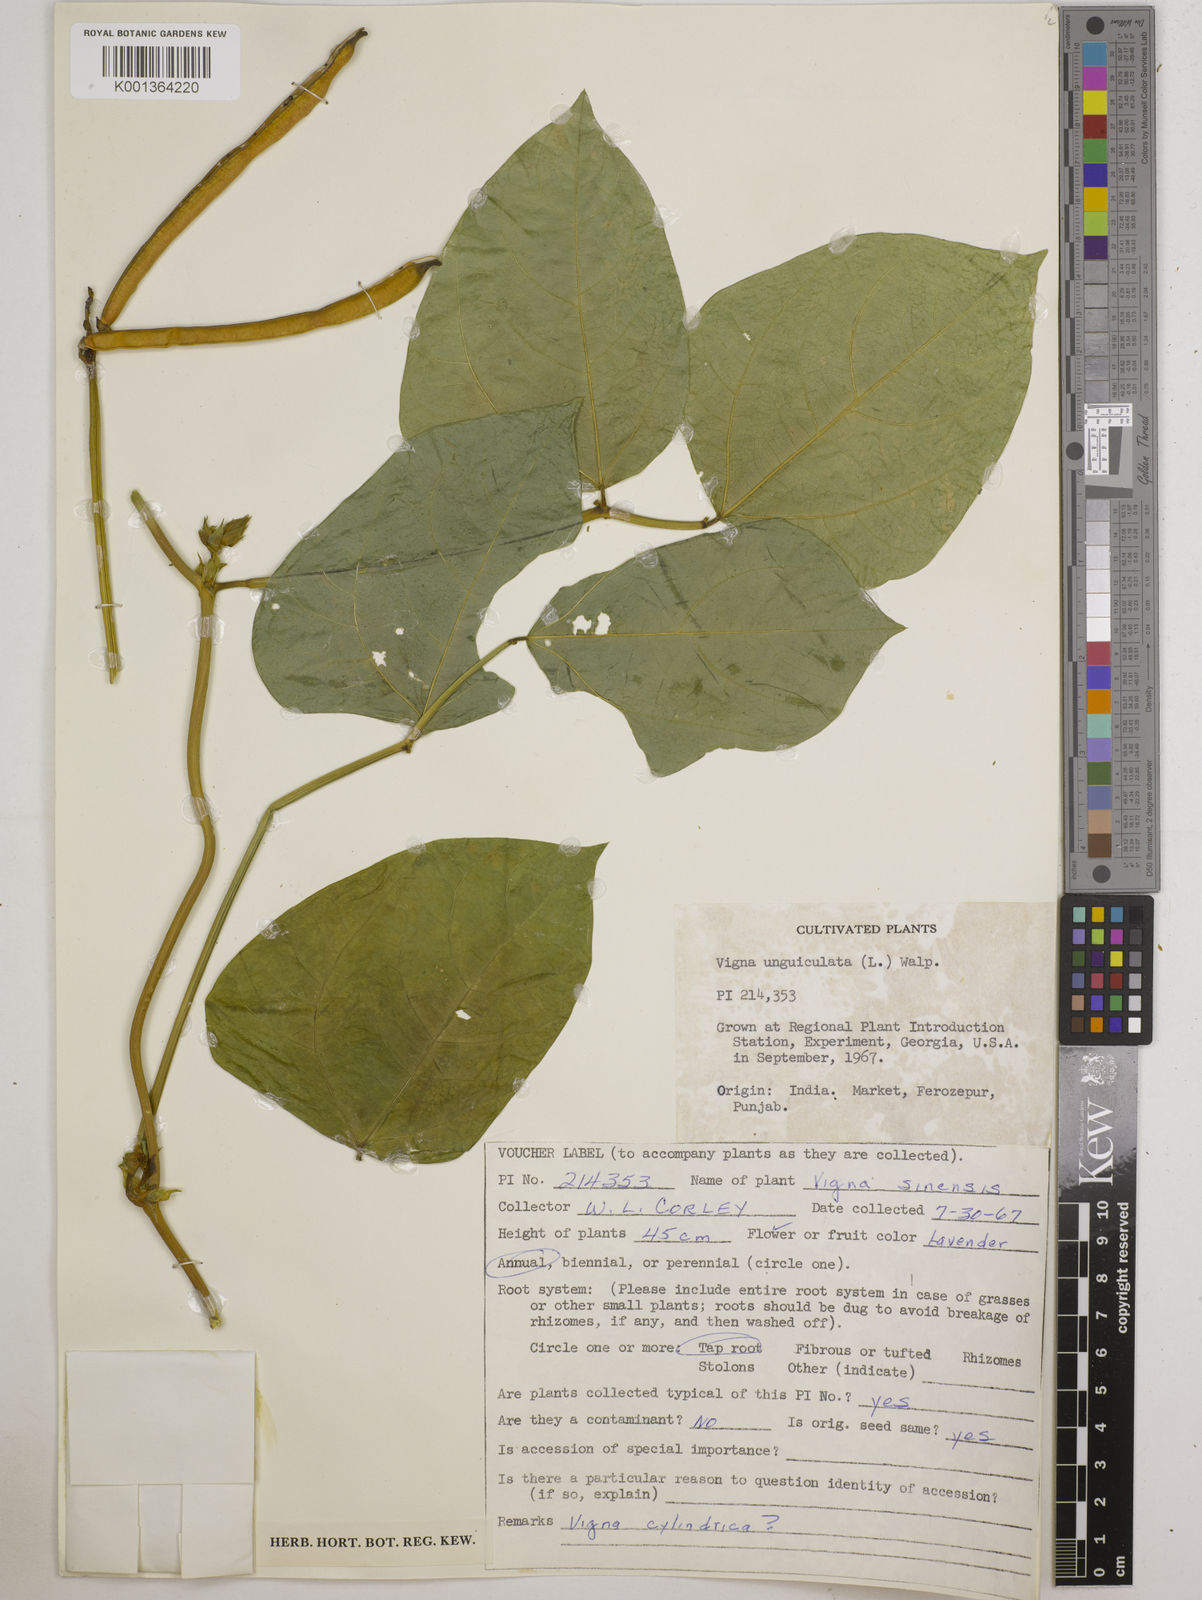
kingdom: Plantae
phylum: Tracheophyta
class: Magnoliopsida
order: Fabales
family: Fabaceae
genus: Vigna
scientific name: Vigna
